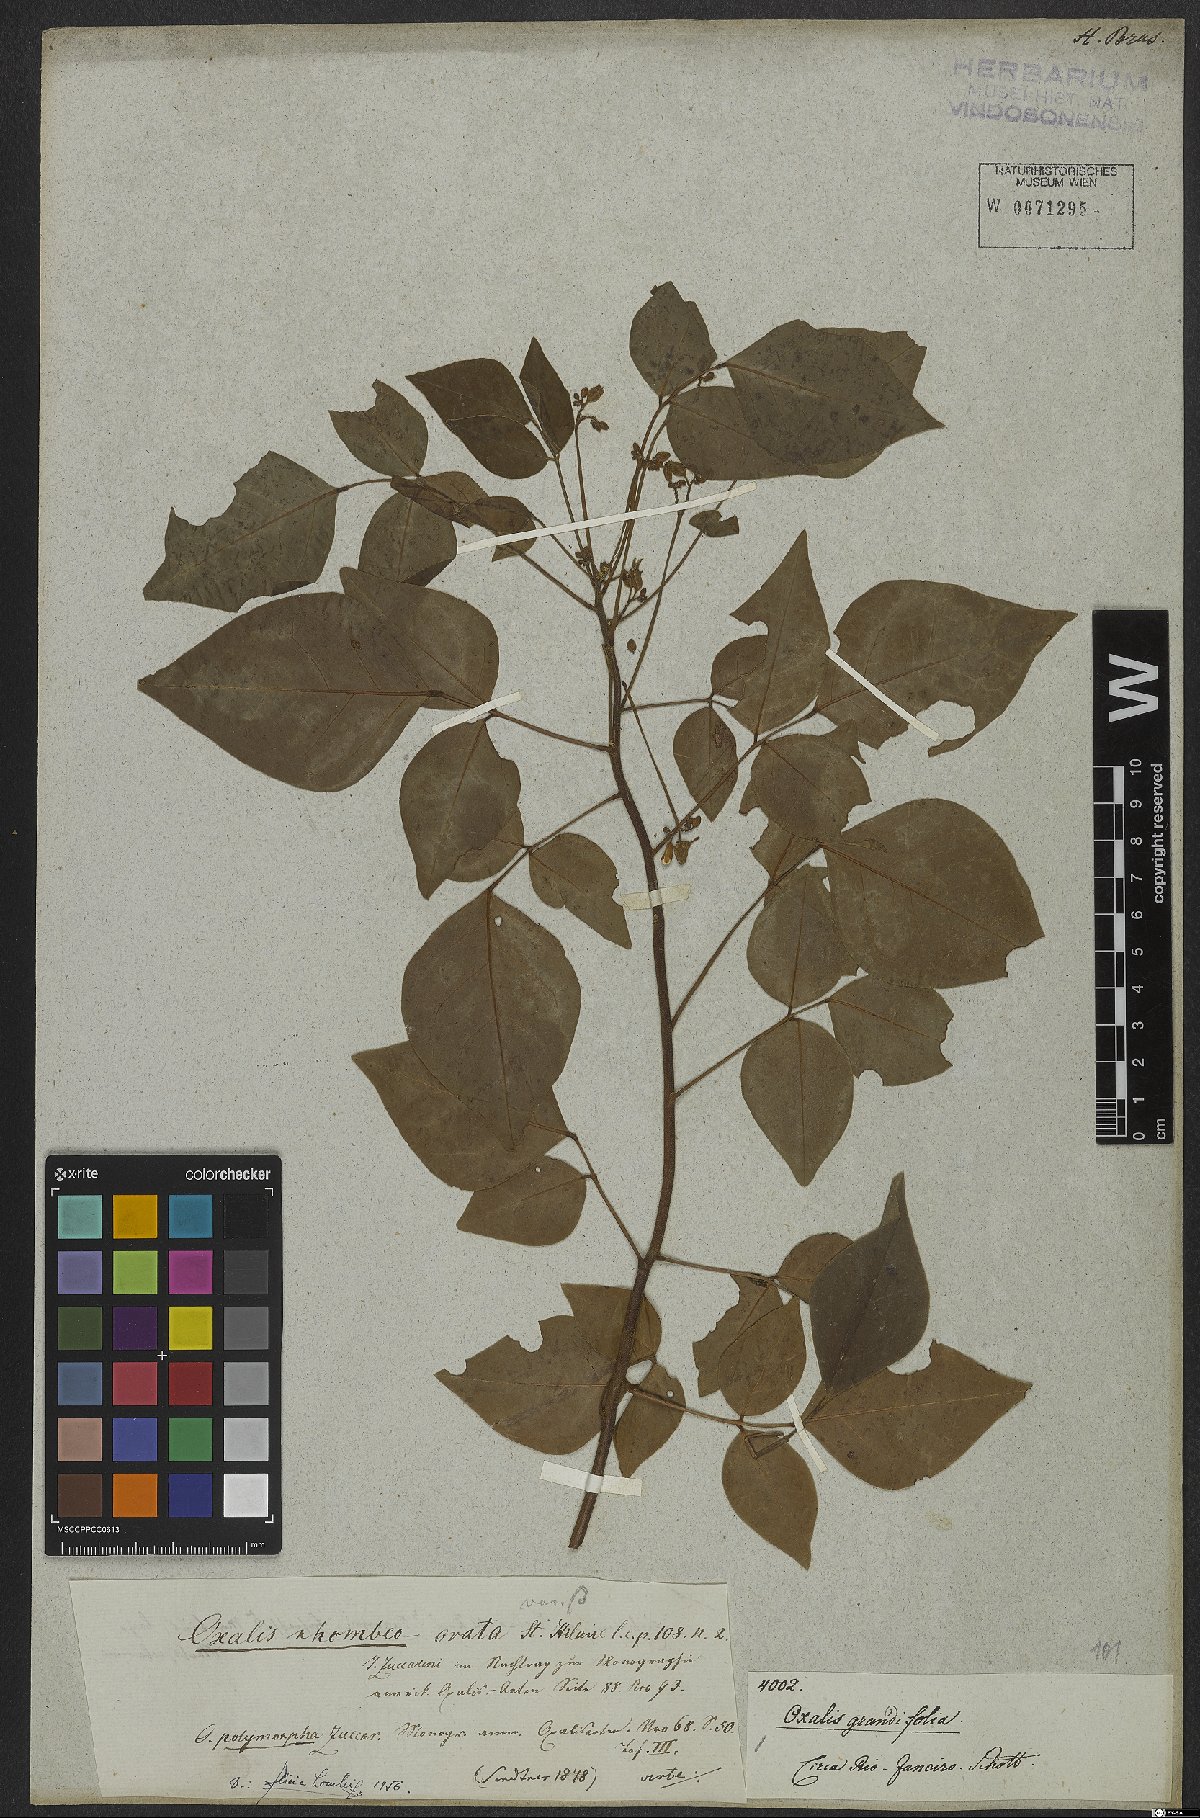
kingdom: Plantae
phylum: Tracheophyta
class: Magnoliopsida
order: Oxalidales
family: Oxalidaceae
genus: Oxalis
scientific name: Oxalis rhombeo-ovata
